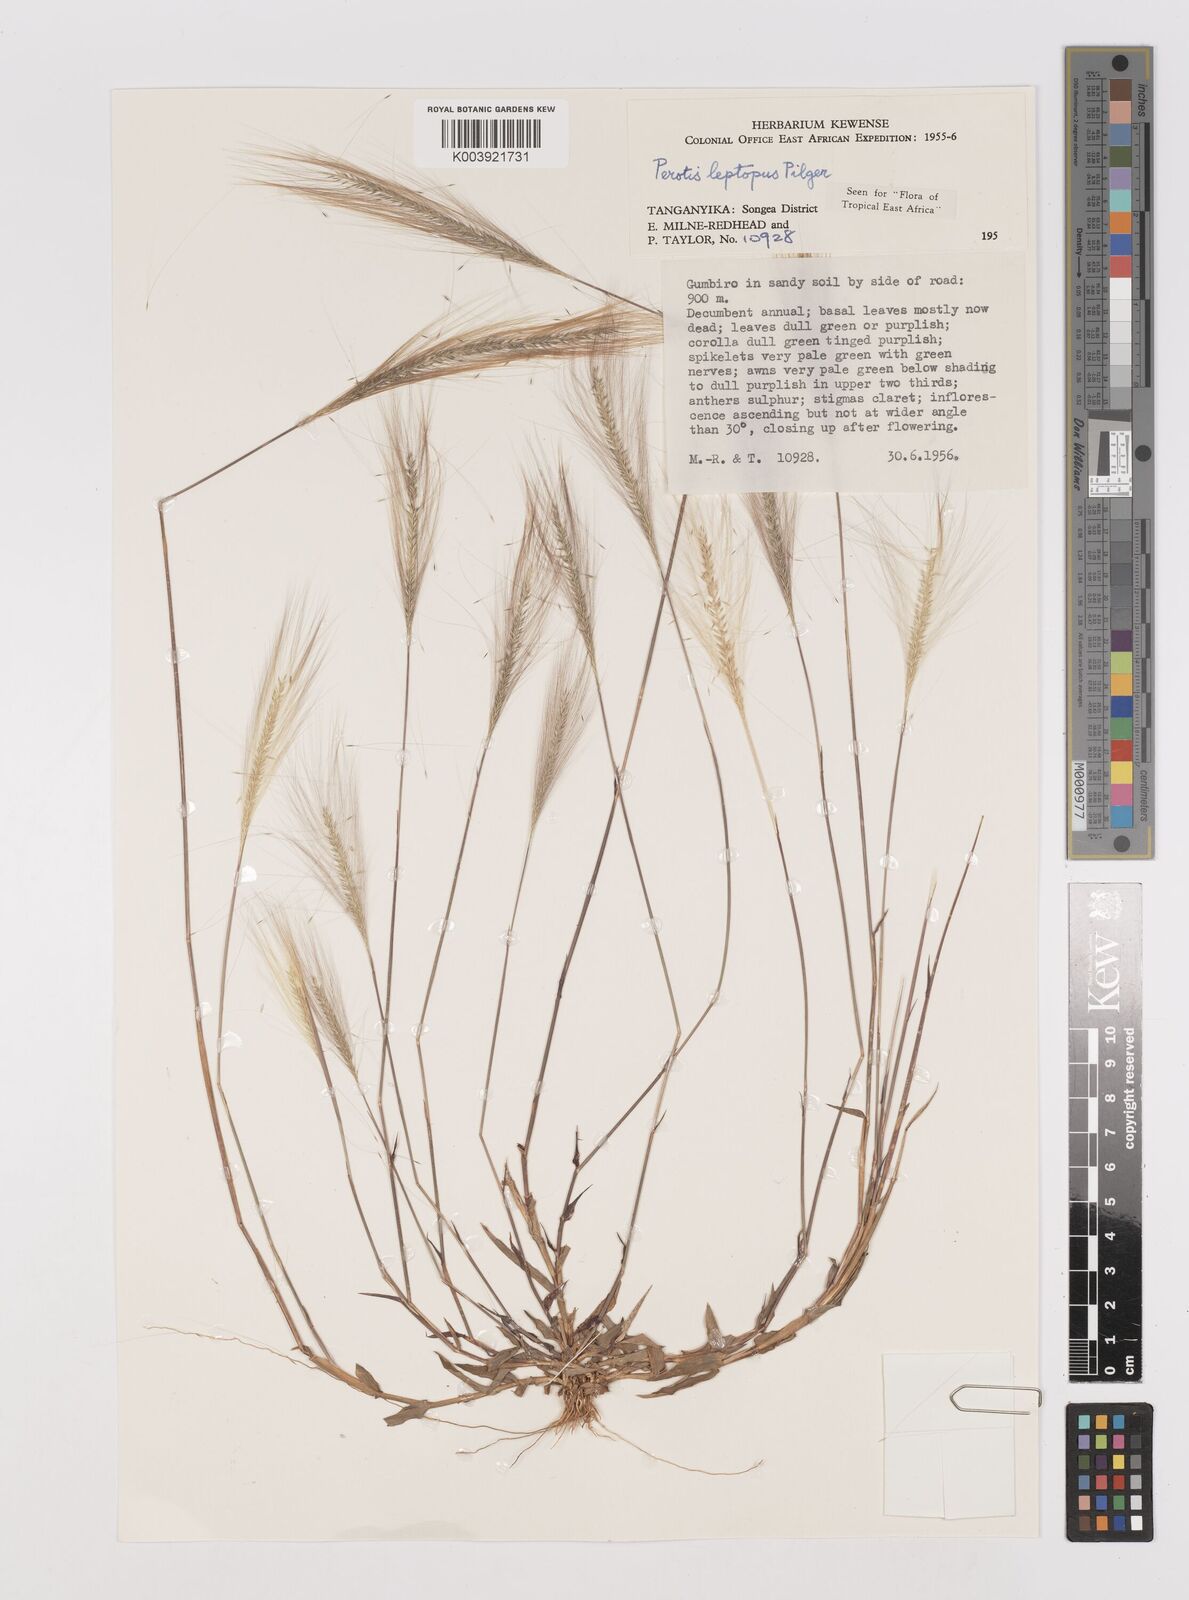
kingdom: Plantae
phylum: Tracheophyta
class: Liliopsida
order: Poales
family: Poaceae
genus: Perotis
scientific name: Perotis leptopus
